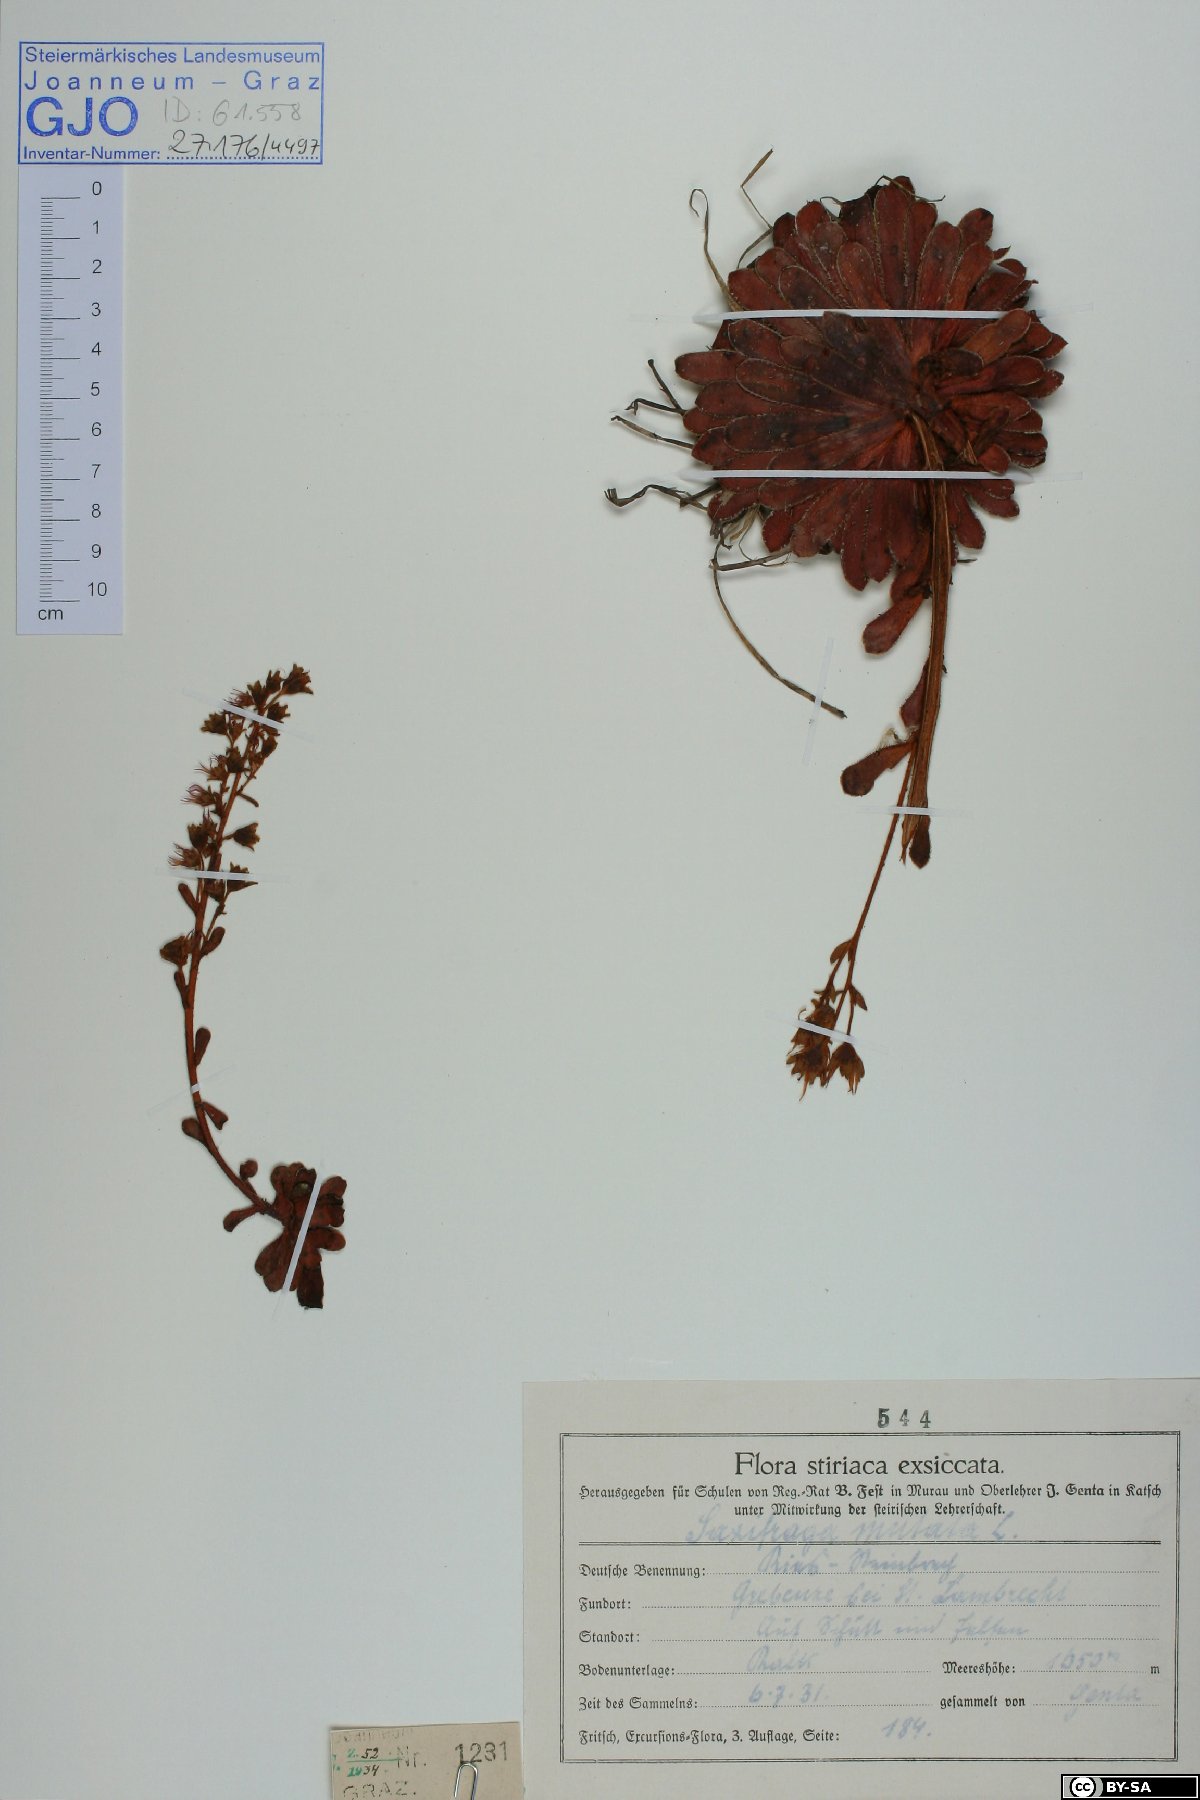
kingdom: Plantae
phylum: Tracheophyta
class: Magnoliopsida
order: Saxifragales
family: Saxifragaceae
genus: Saxifraga
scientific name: Saxifraga mutata
